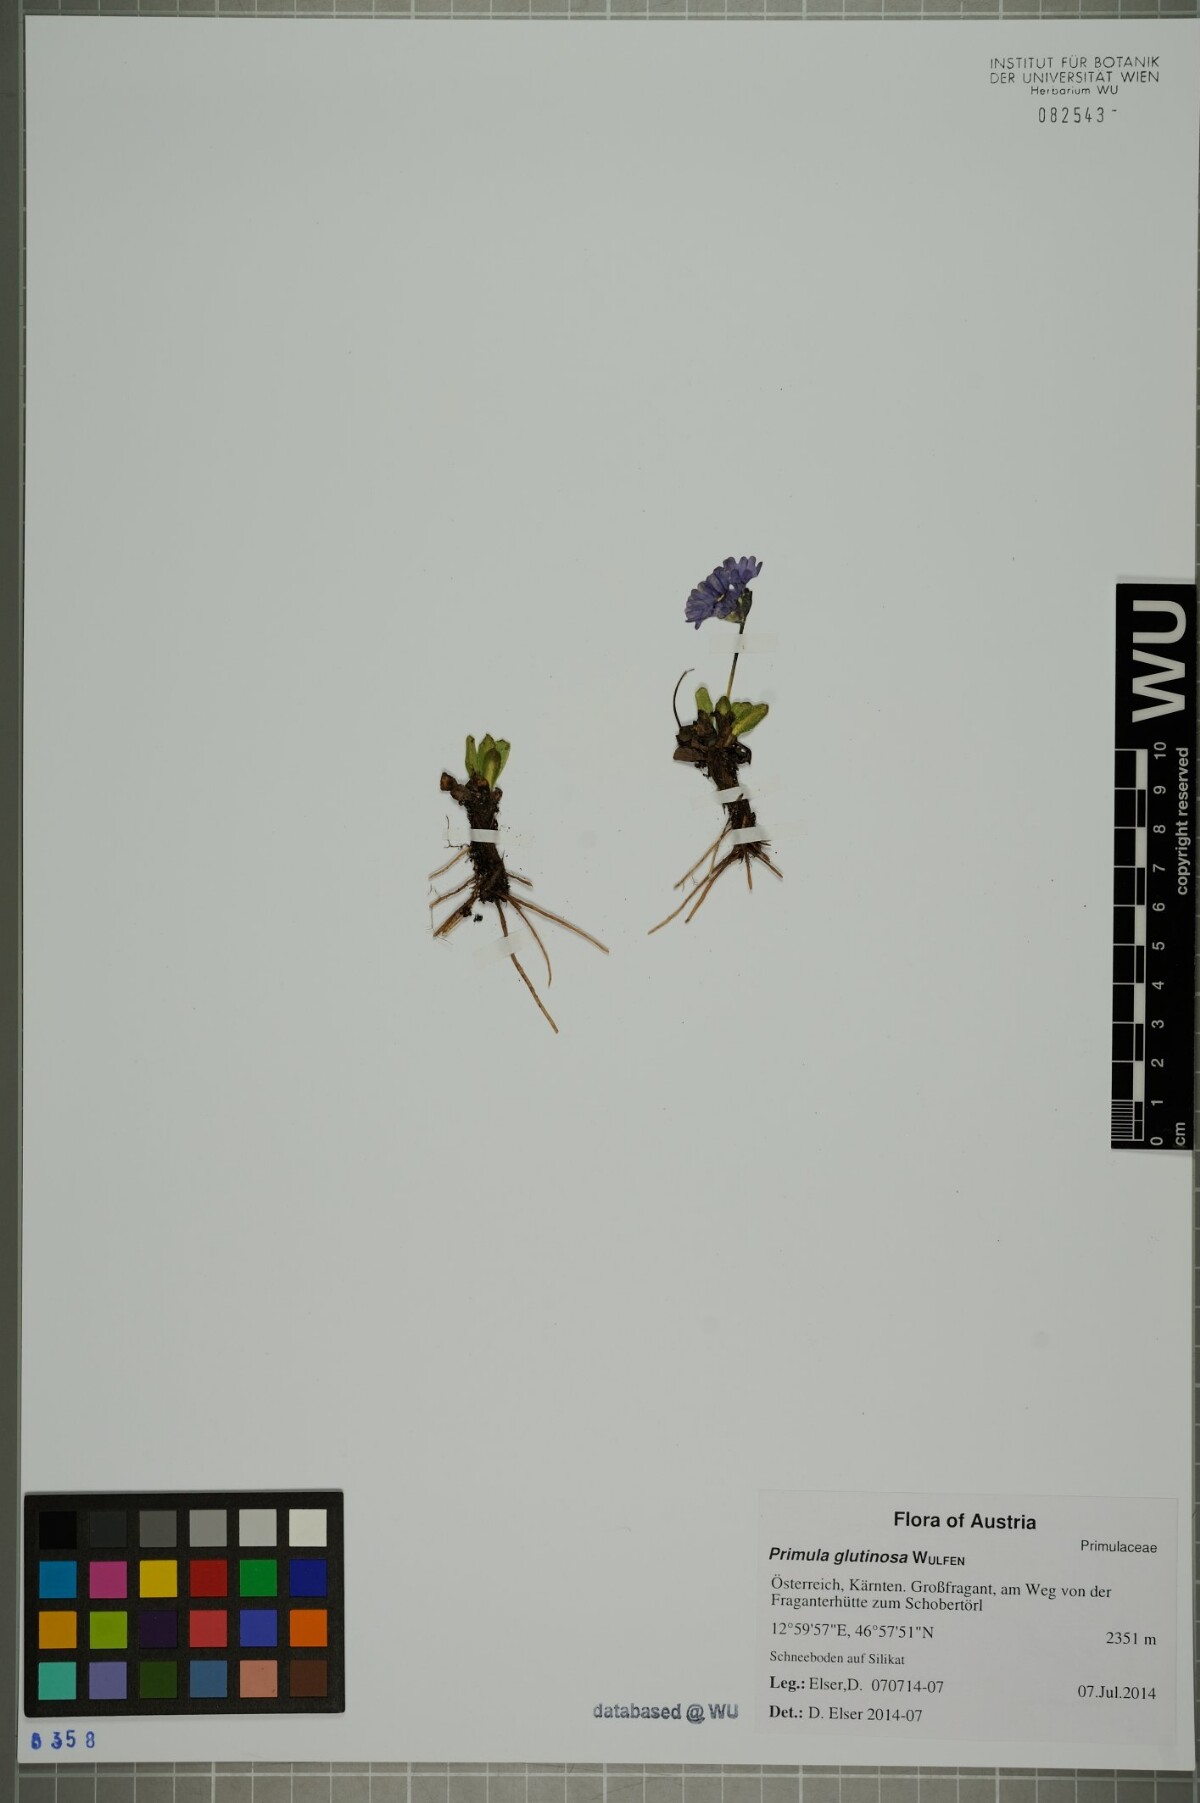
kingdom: Plantae
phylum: Tracheophyta
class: Magnoliopsida
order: Ericales
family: Primulaceae
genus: Primula
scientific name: Primula glutinosa
